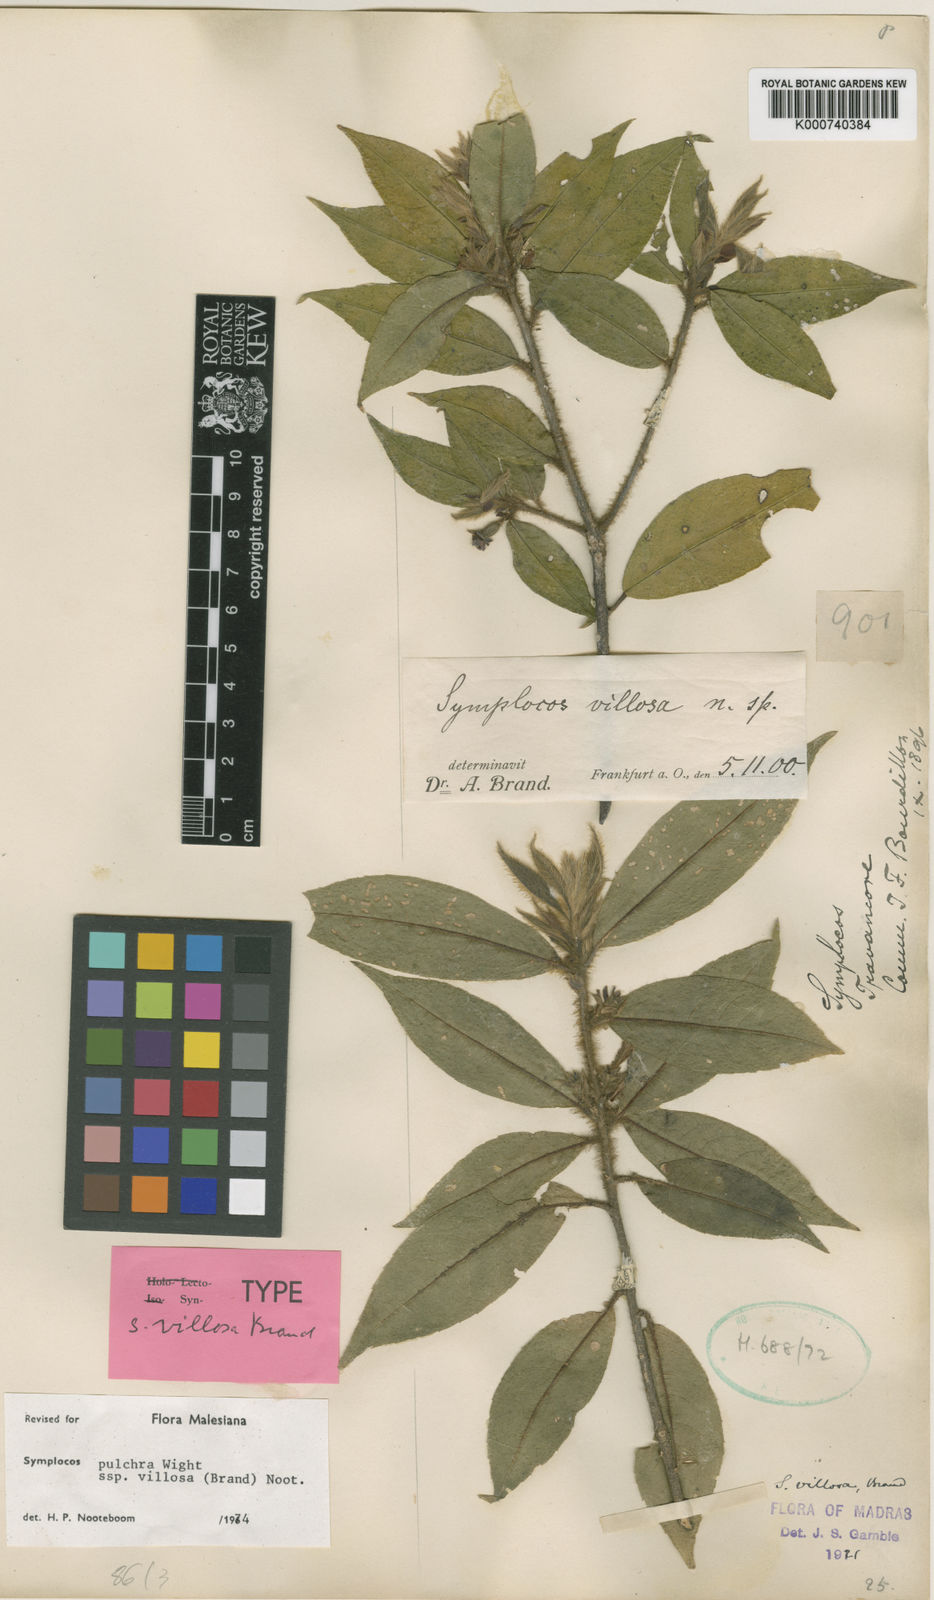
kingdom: Plantae
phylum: Tracheophyta
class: Magnoliopsida
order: Ericales
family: Symplocaceae
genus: Symplocos
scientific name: Symplocos pulchra
